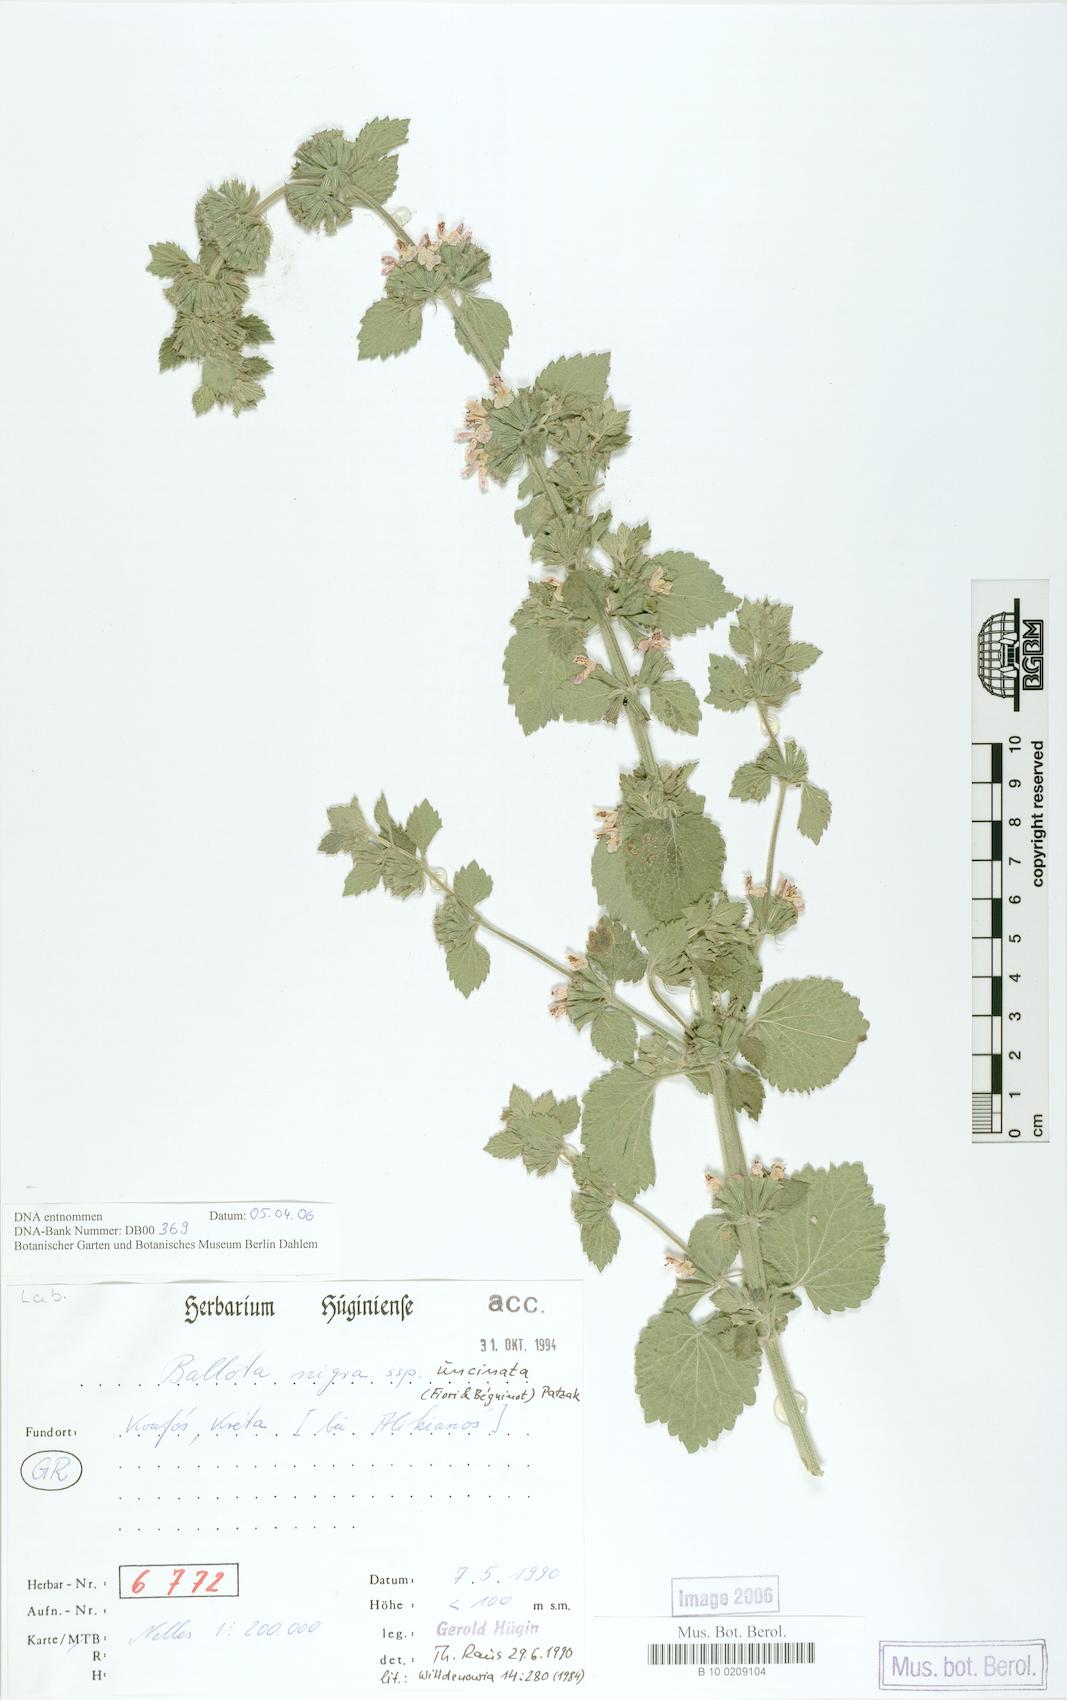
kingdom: Plantae
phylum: Tracheophyta
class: Magnoliopsida
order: Lamiales
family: Lamiaceae
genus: Ballota
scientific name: Ballota nigra
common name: Black horehound
